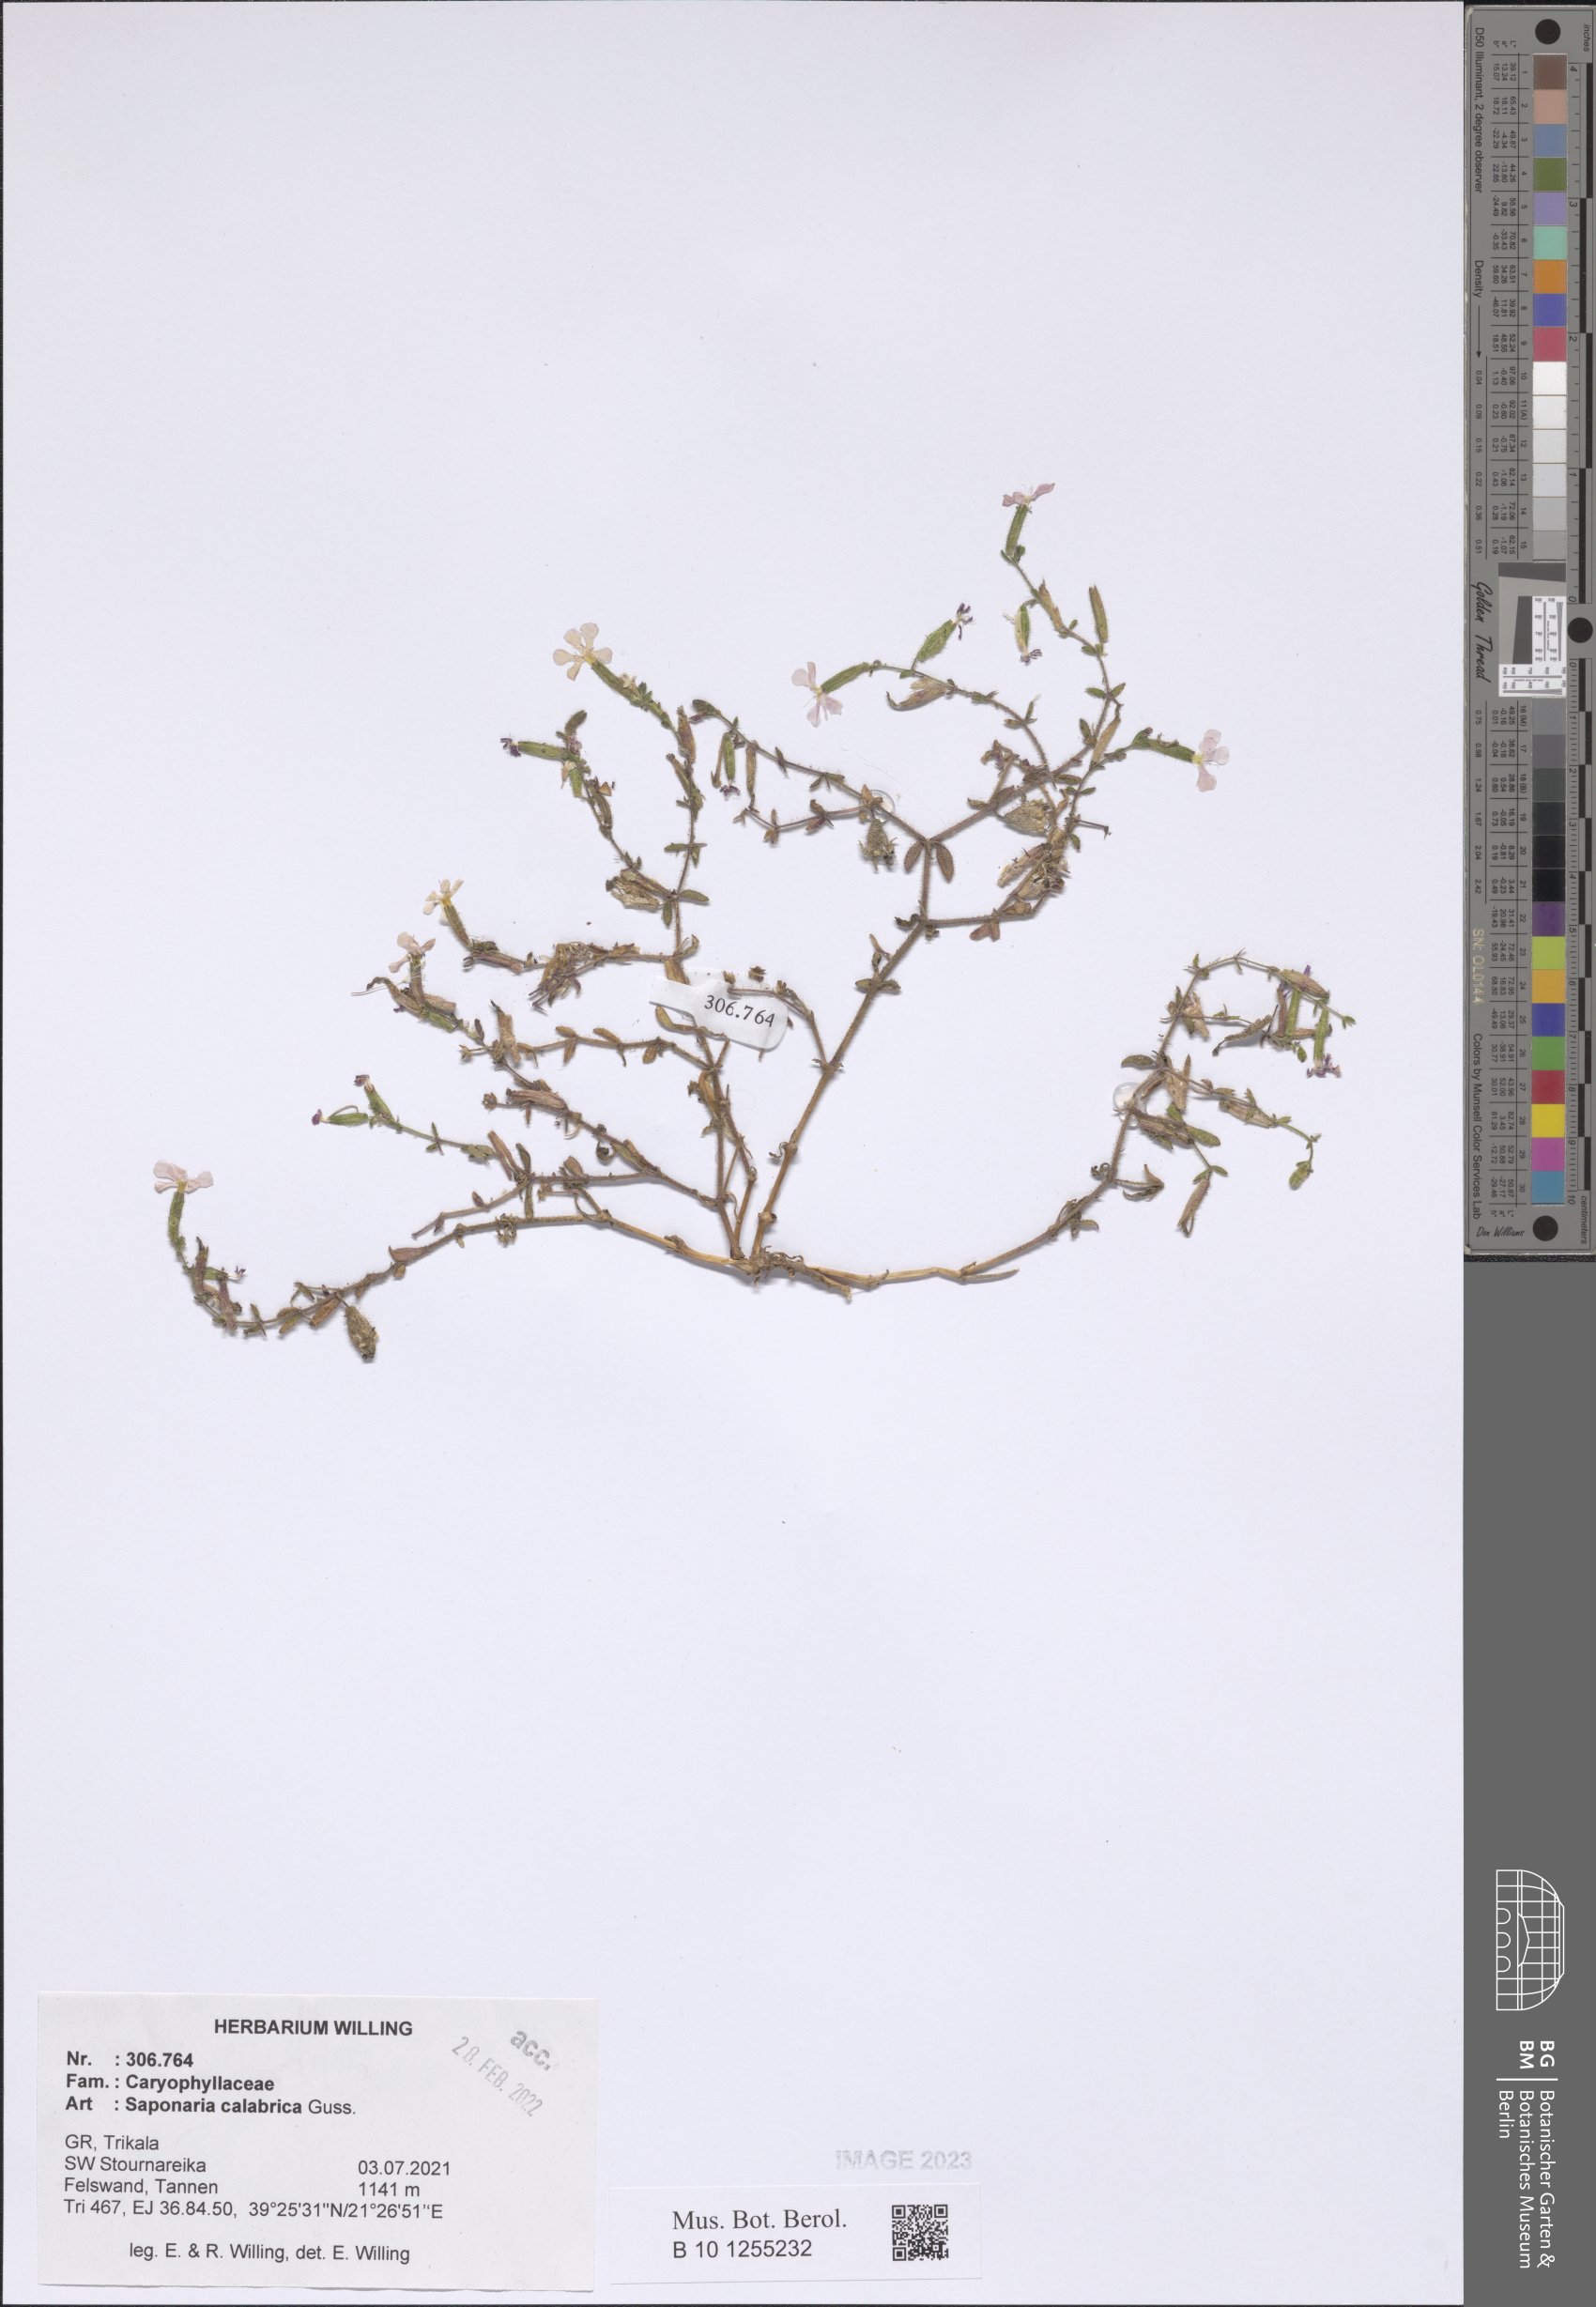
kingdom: Plantae
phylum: Tracheophyta
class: Magnoliopsida
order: Caryophyllales
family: Caryophyllaceae
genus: Saponaria
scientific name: Saponaria calabrica
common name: Adriatic soapwort
